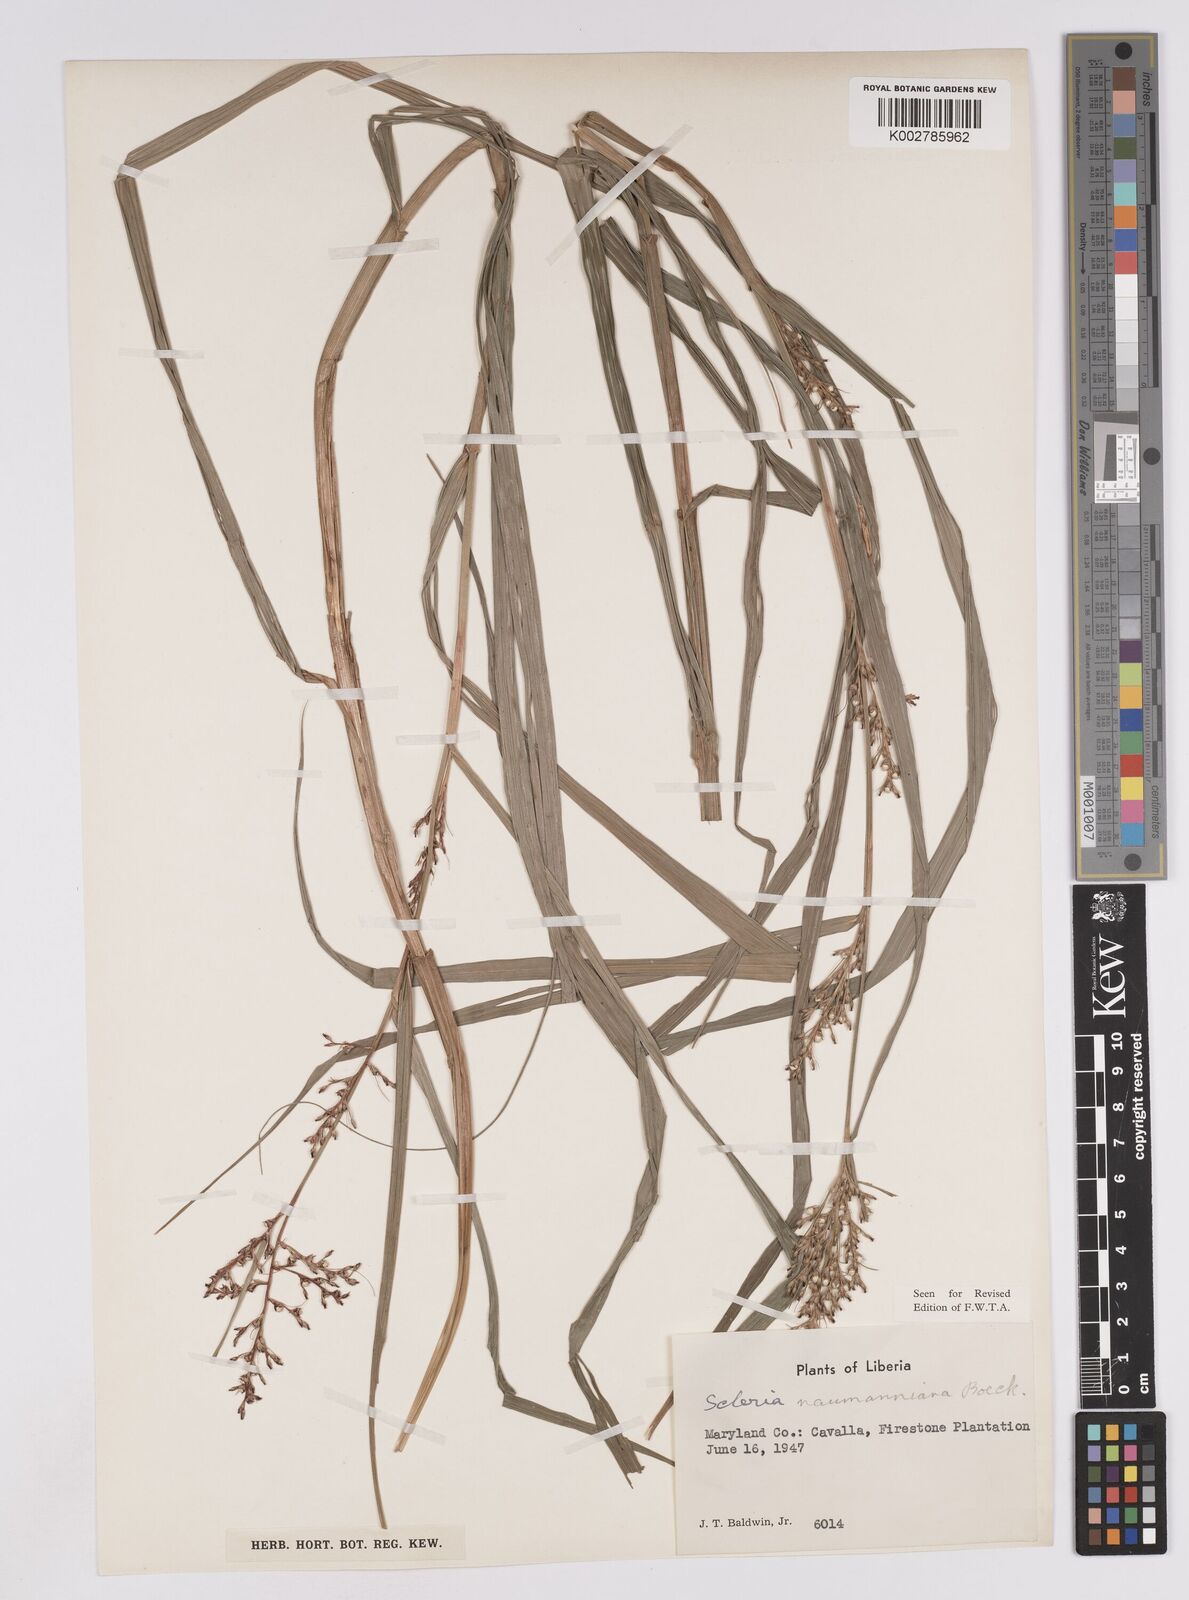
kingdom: Plantae
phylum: Tracheophyta
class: Liliopsida
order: Poales
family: Cyperaceae
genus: Scleria
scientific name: Scleria naumanniana
